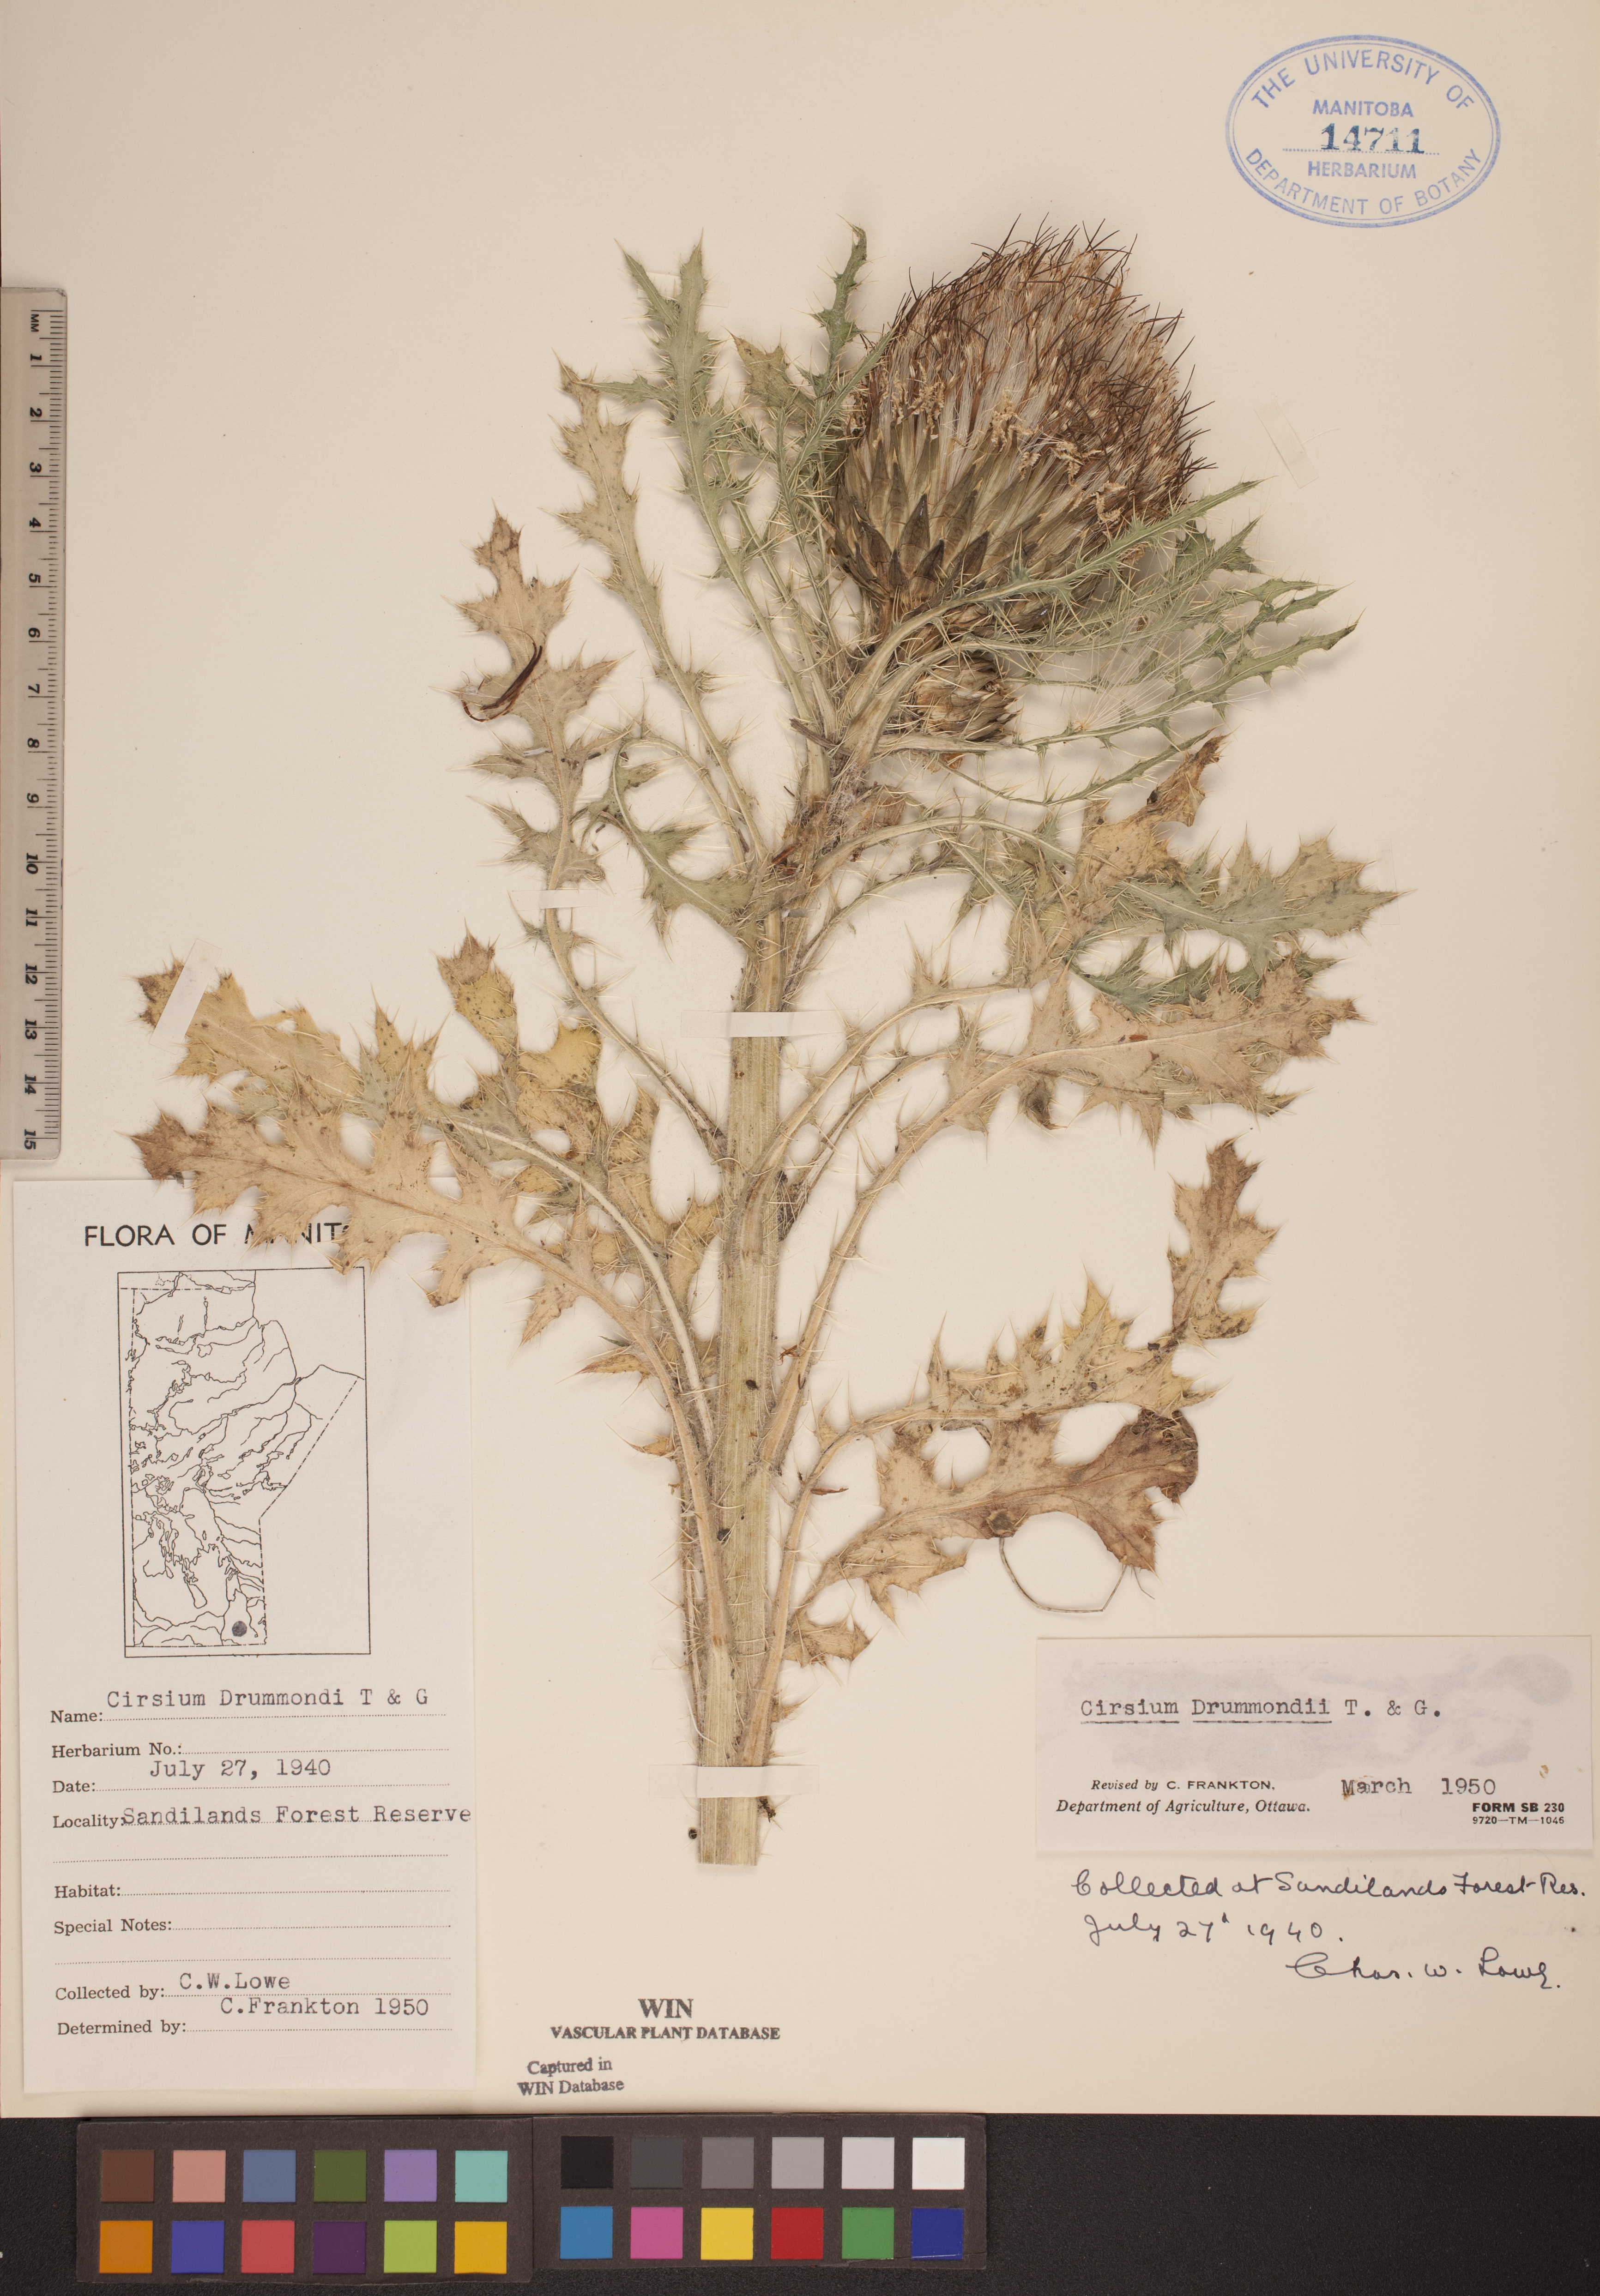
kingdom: Plantae
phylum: Tracheophyta
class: Magnoliopsida
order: Asterales
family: Asteraceae
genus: Cirsium
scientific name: Cirsium drummondii
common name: Drummond's thistle
